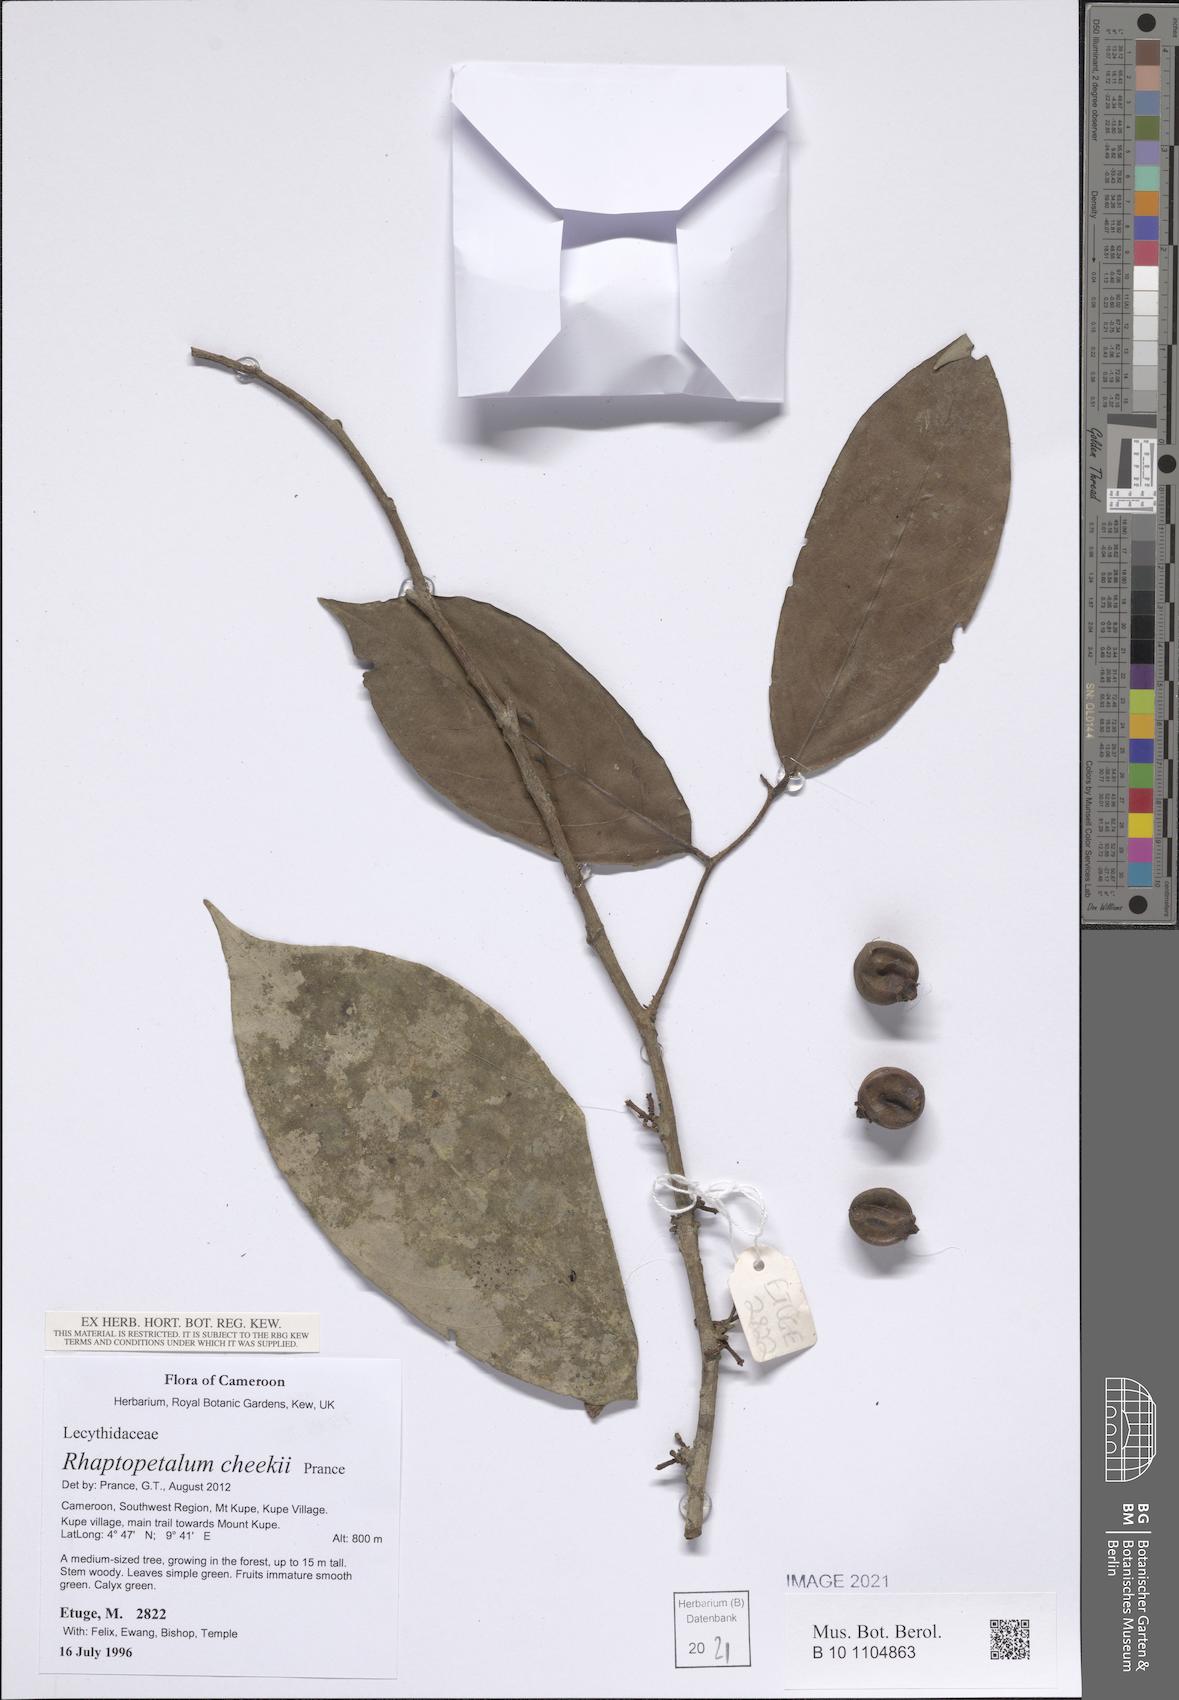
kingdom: Plantae
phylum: Tracheophyta
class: Magnoliopsida
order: Ericales
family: Lecythidaceae
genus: Rhaptopetalum
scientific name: Rhaptopetalum cheekii
